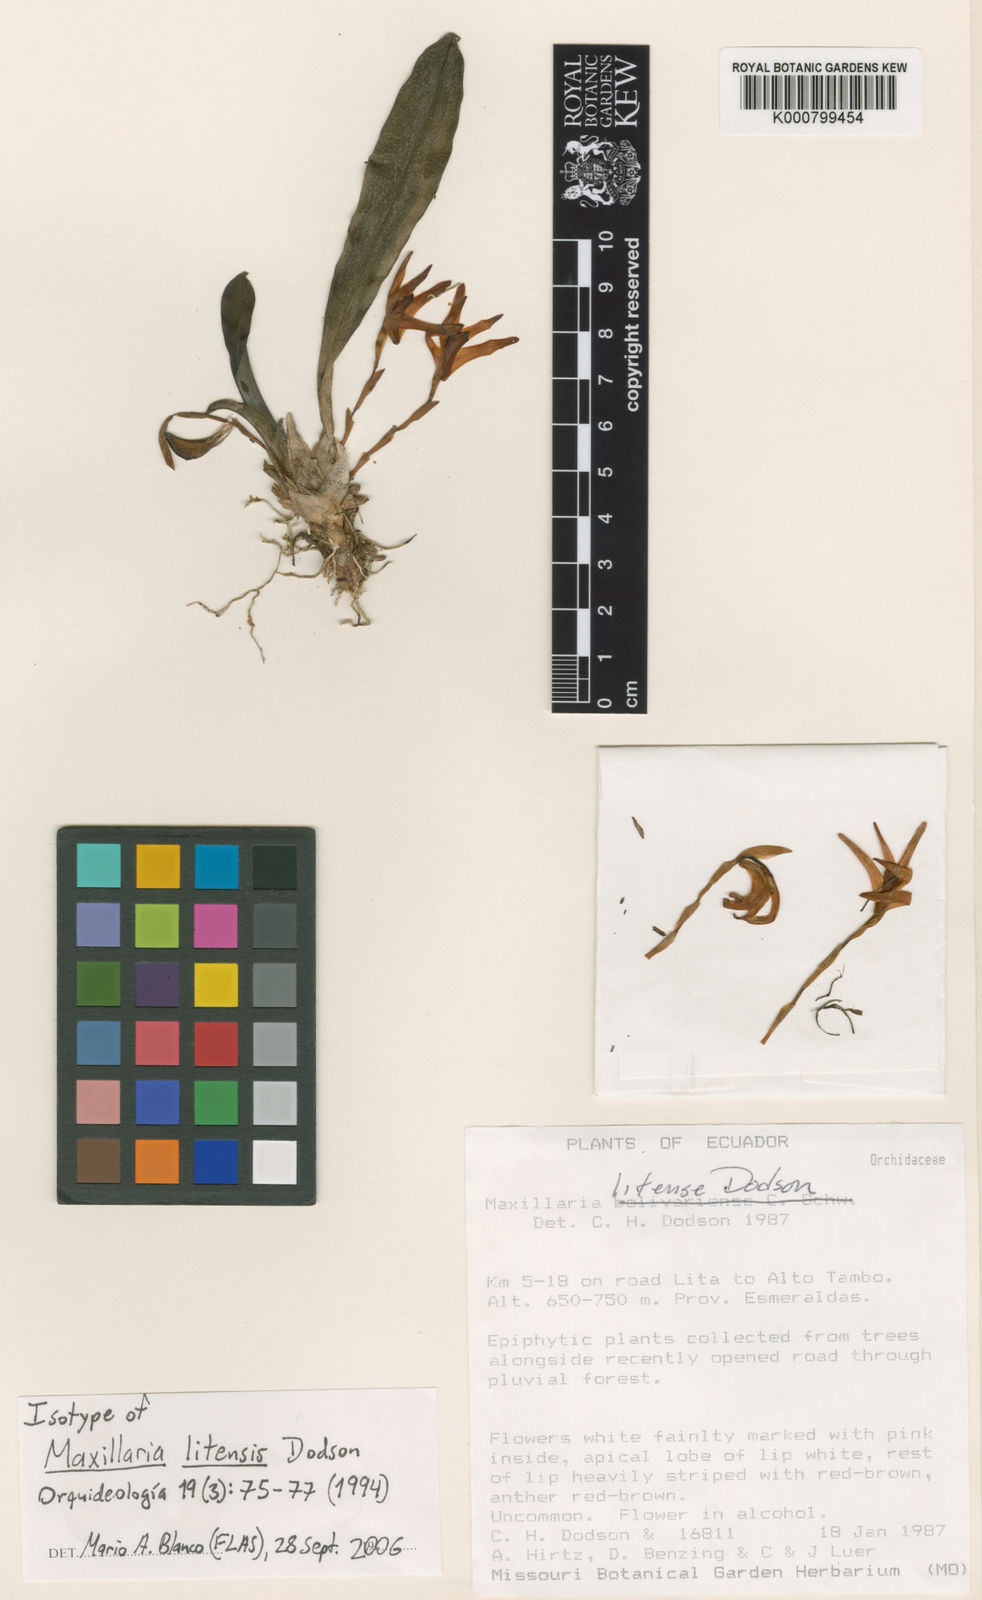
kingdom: Plantae
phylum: Tracheophyta
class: Liliopsida
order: Asparagales
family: Orchidaceae
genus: Maxillaria
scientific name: Maxillaria litensis
